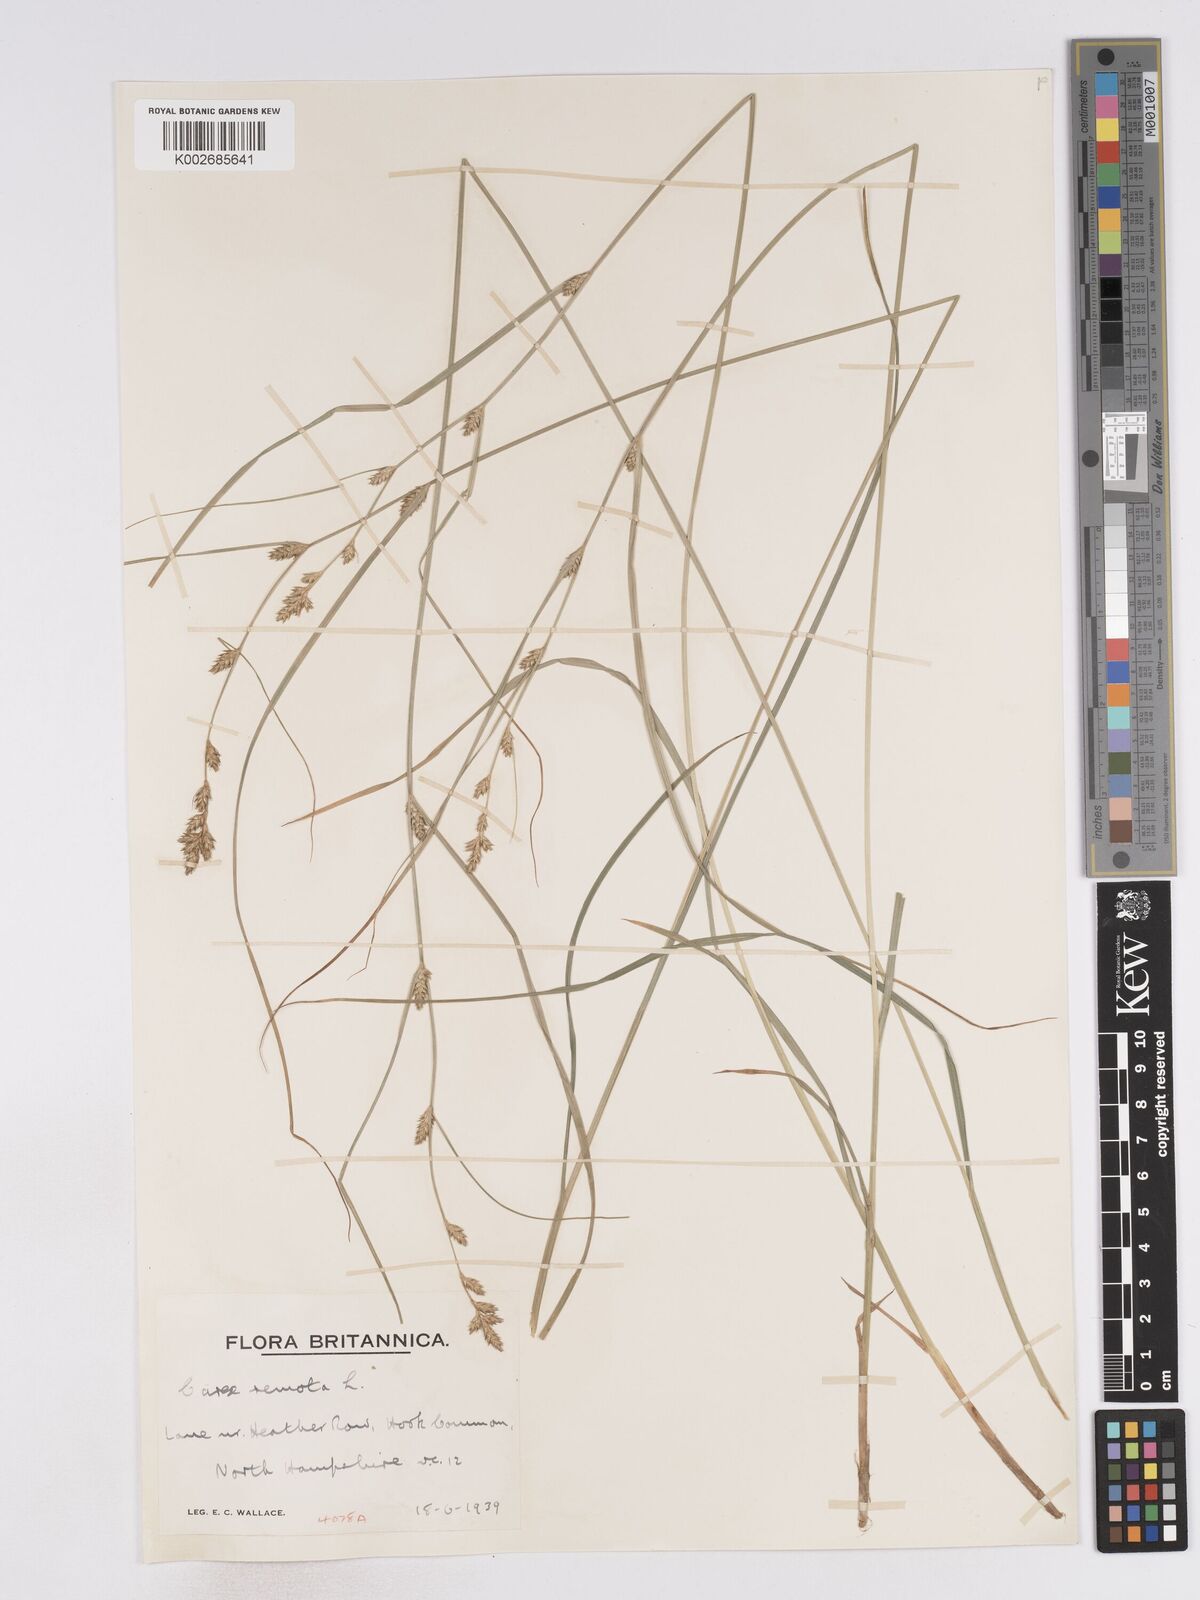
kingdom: Plantae
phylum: Tracheophyta
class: Liliopsida
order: Poales
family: Cyperaceae
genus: Carex
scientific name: Carex remota
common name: Remote sedge
